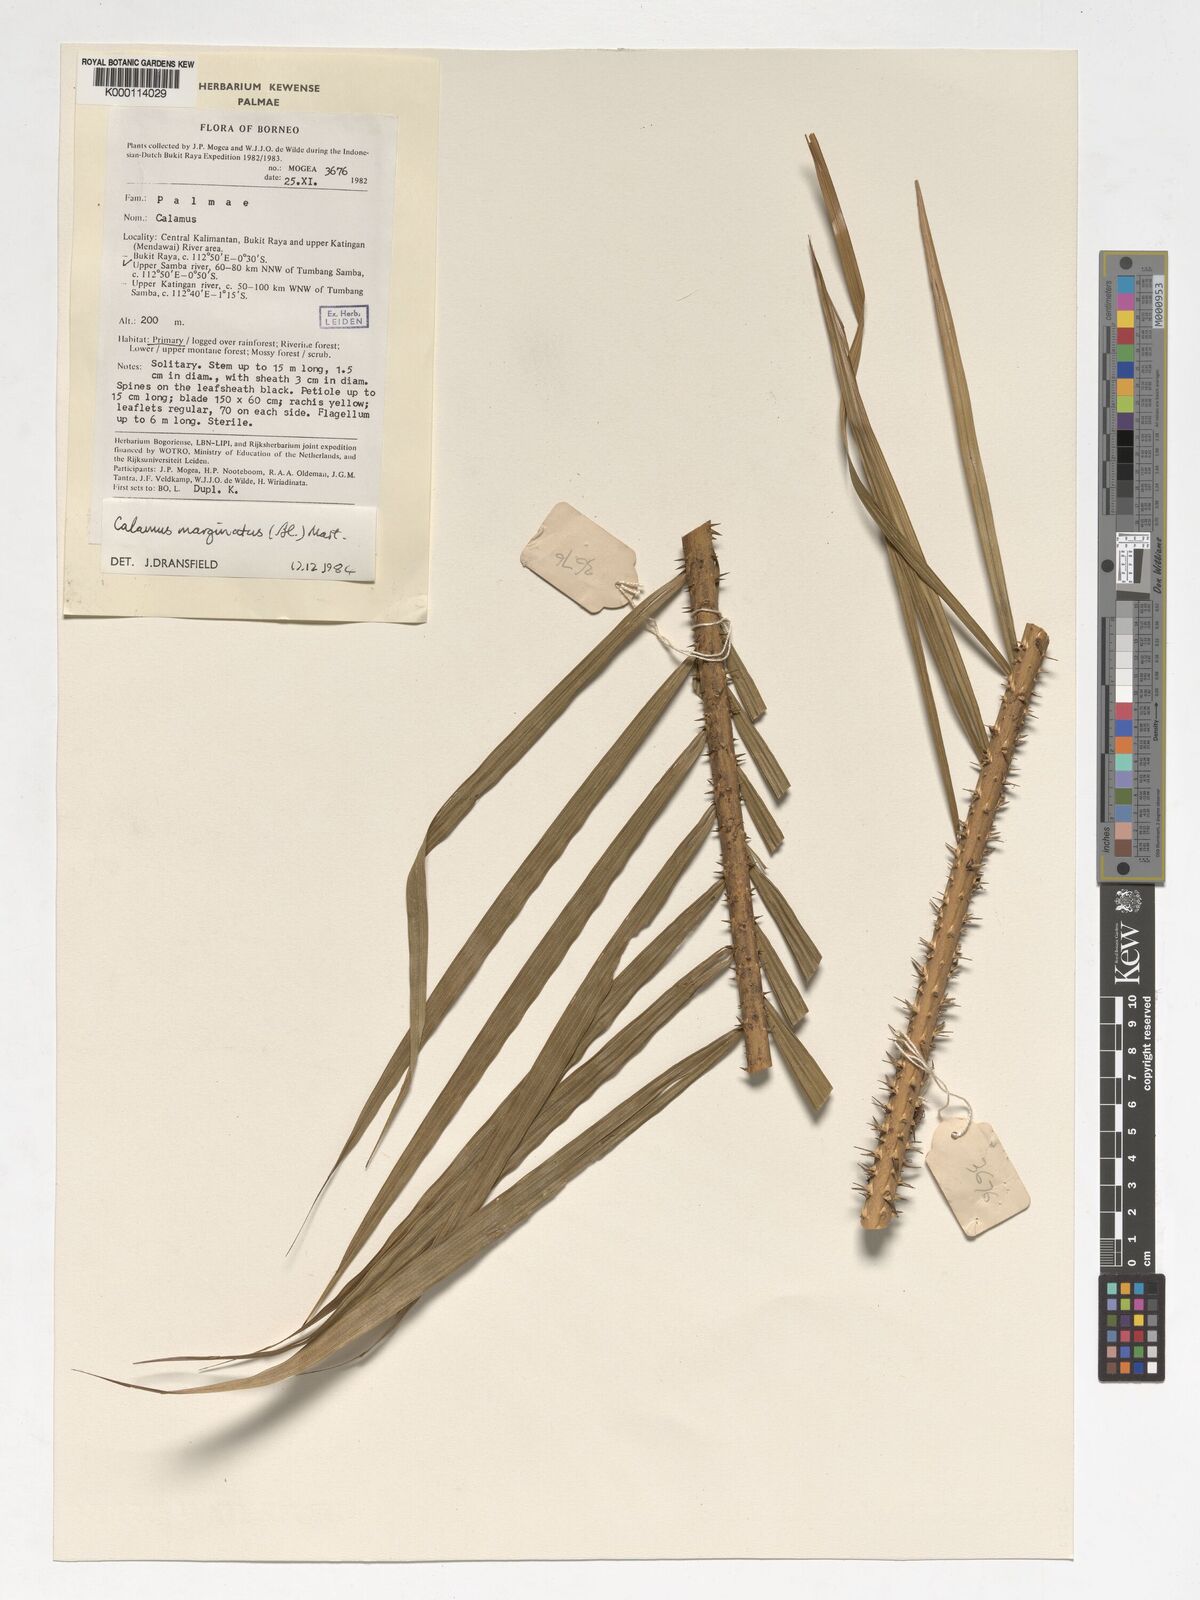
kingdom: Plantae
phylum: Tracheophyta
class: Liliopsida
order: Arecales
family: Arecaceae
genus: Calamus
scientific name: Calamus
